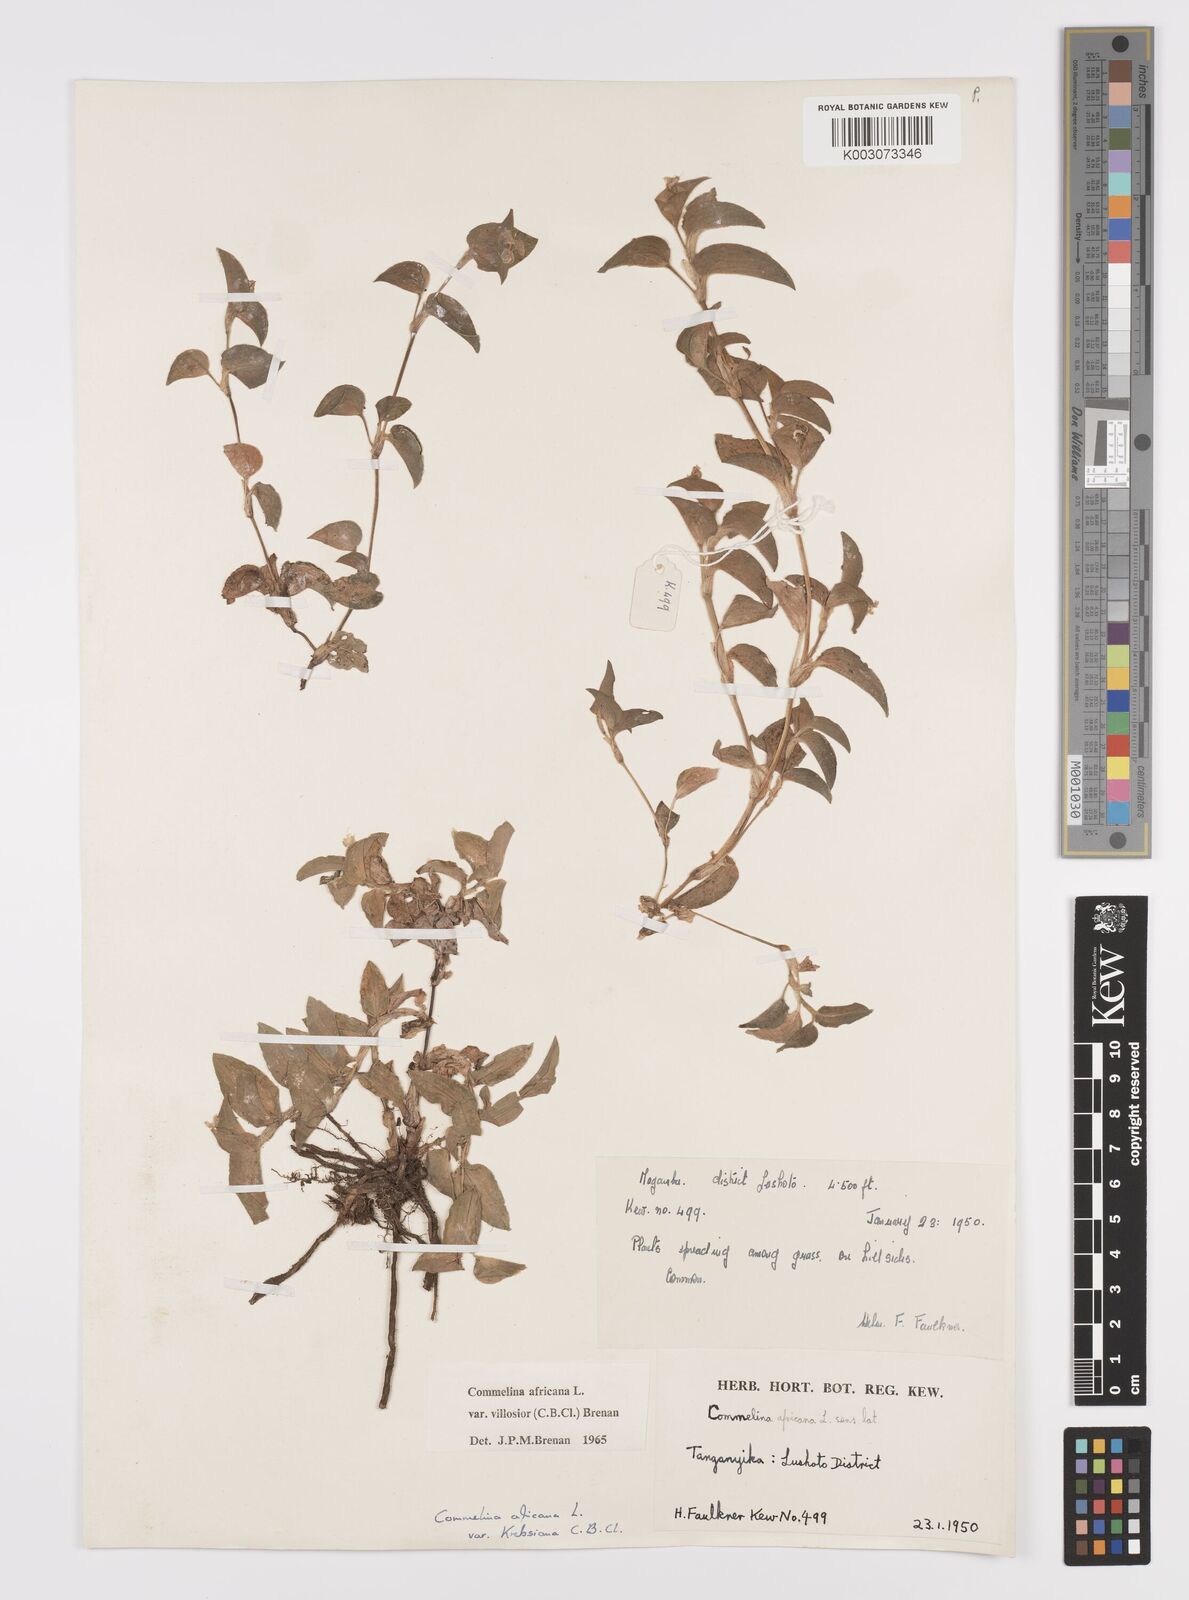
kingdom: Plantae
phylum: Tracheophyta
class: Liliopsida
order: Commelinales
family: Commelinaceae
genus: Commelina
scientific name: Commelina africana
